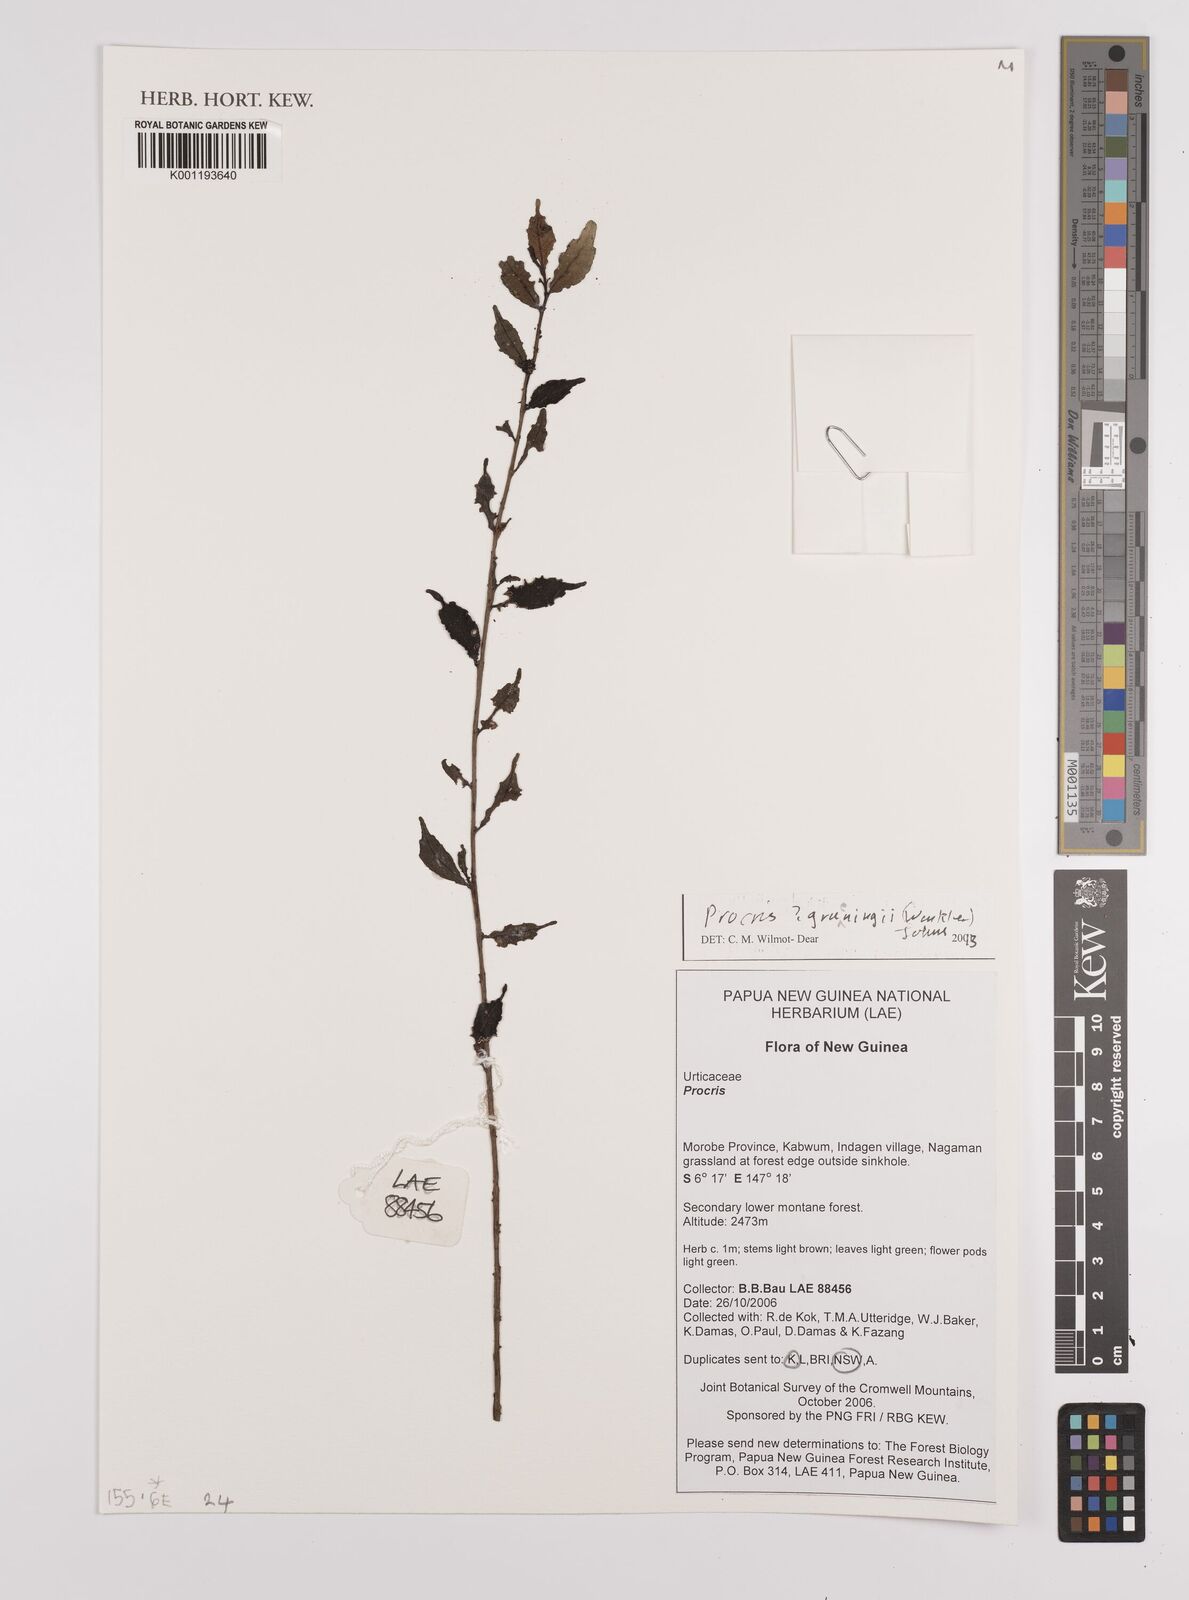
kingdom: Plantae
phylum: Tracheophyta
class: Magnoliopsida
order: Rosales
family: Urticaceae
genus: Procris
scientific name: Procris
